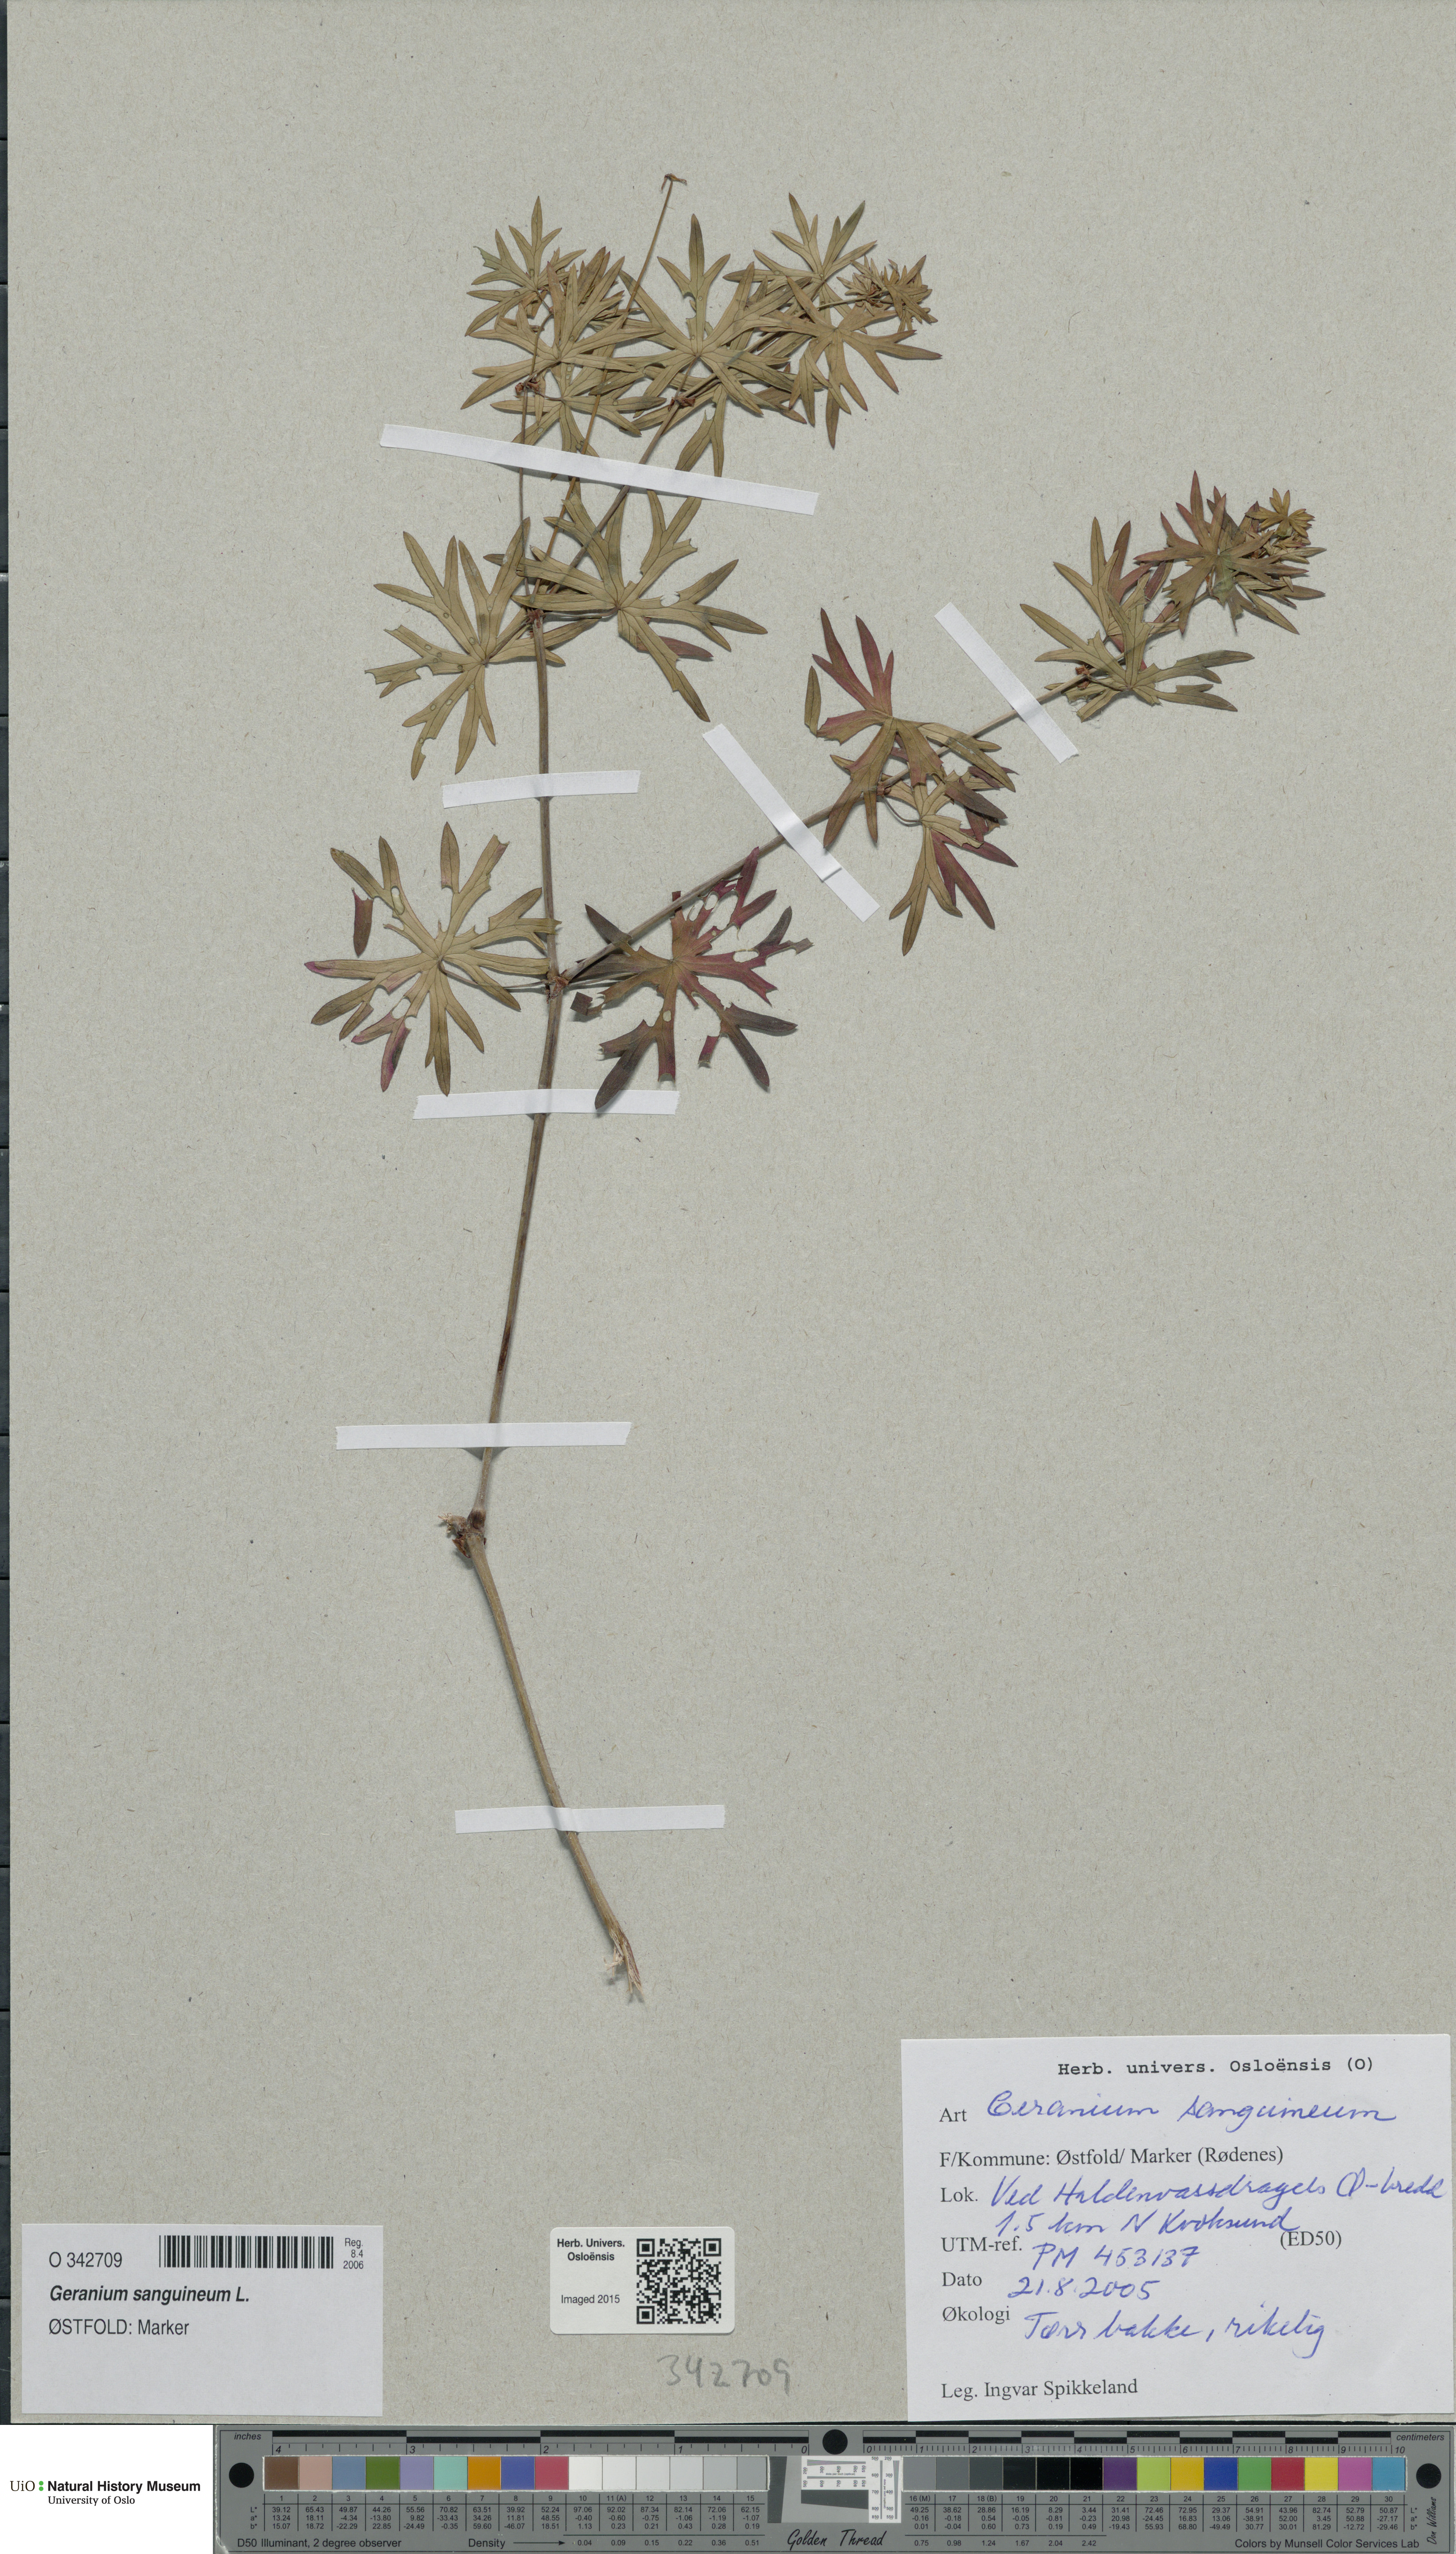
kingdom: Plantae
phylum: Tracheophyta
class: Magnoliopsida
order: Geraniales
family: Geraniaceae
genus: Geranium
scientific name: Geranium sanguineum
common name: Bloody crane's-bill
